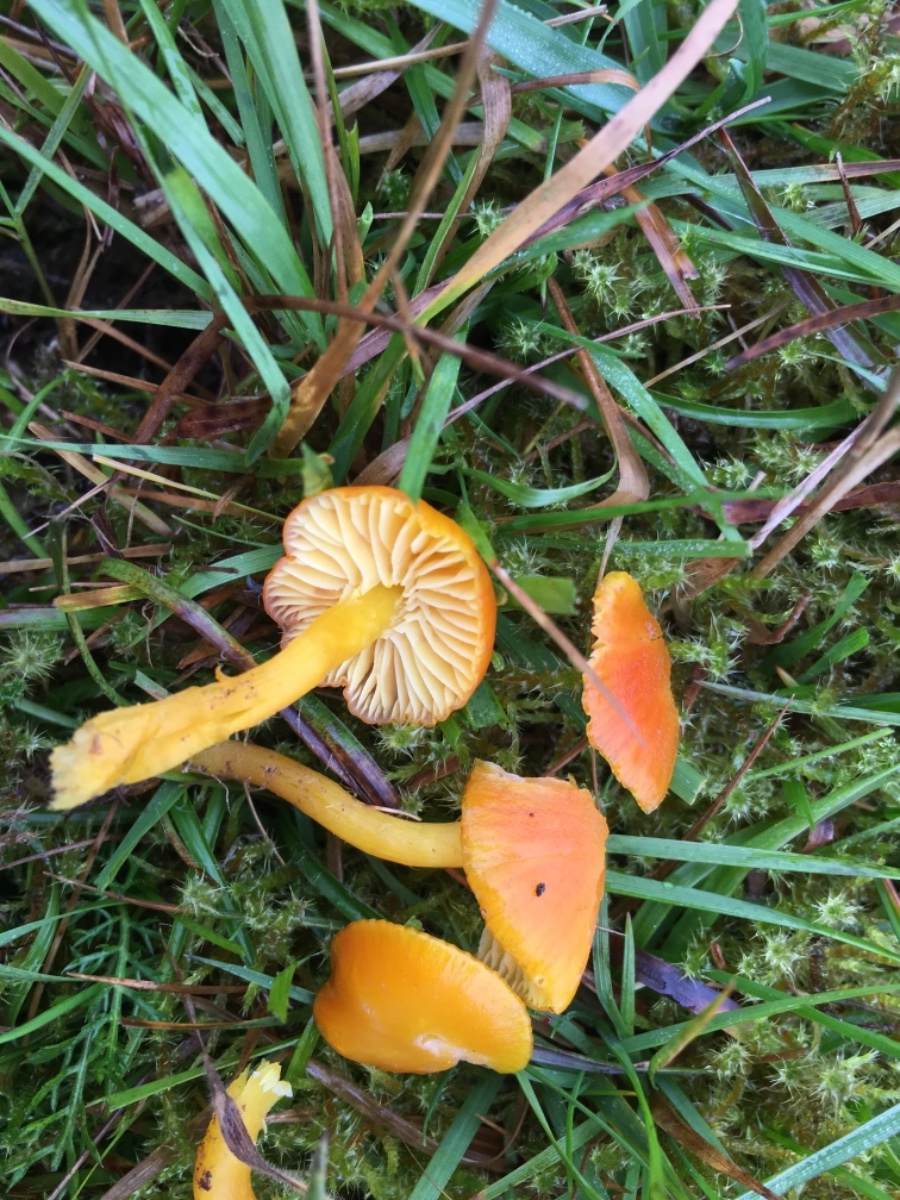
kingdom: Fungi
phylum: Basidiomycota
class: Agaricomycetes
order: Agaricales
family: Hygrophoraceae
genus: Hygrocybe
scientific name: Hygrocybe ceracea
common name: voksgul vokshat
